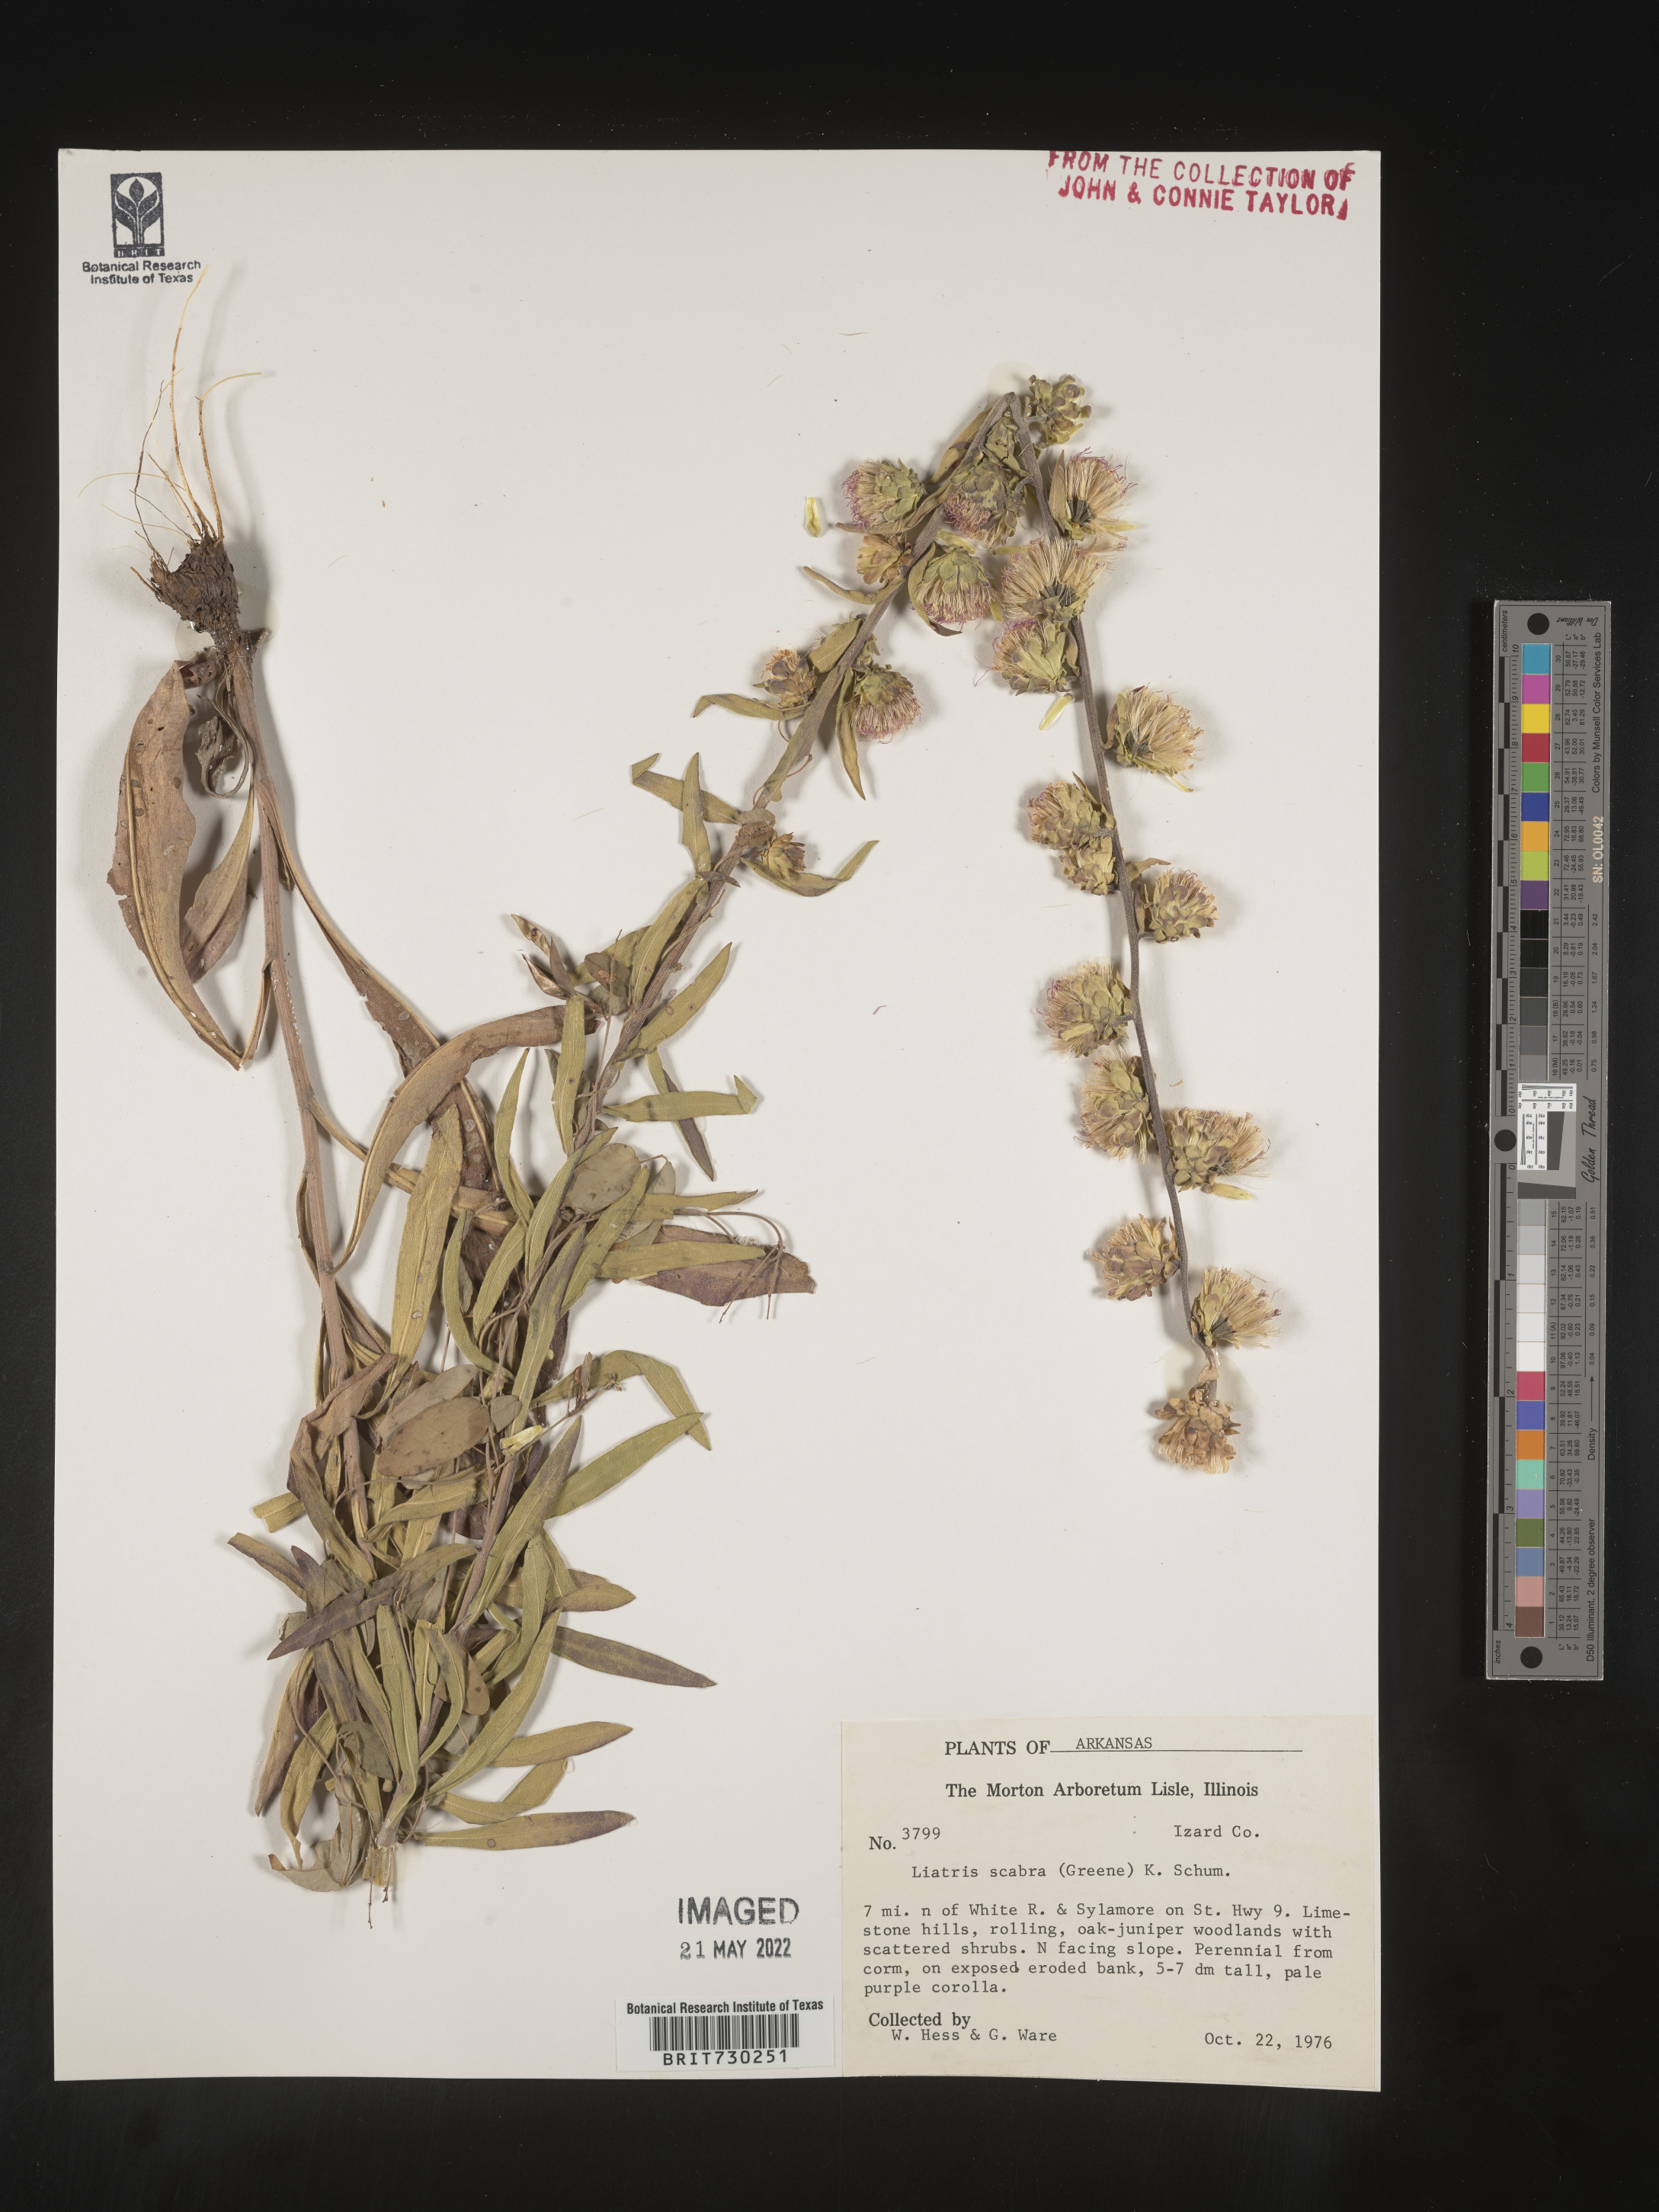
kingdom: Plantae
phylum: Tracheophyta
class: Magnoliopsida
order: Asterales
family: Asteraceae
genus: Liatris
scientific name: Liatris aspera
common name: Lacerate blazing-star
